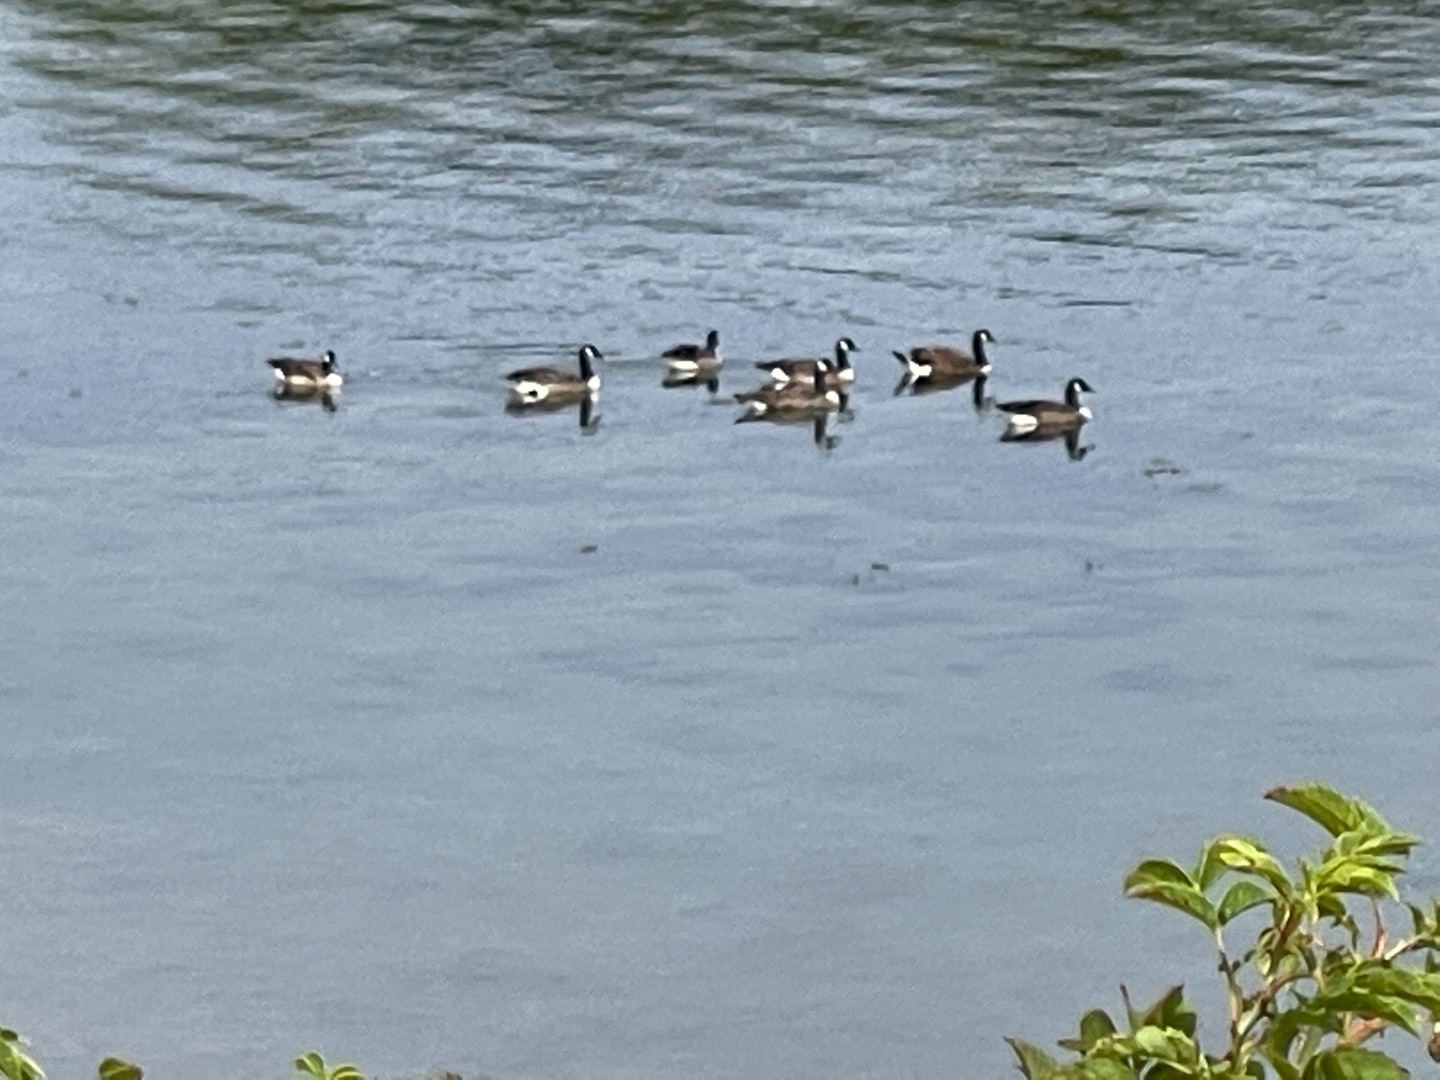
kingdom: Animalia
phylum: Chordata
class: Aves
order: Anseriformes
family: Anatidae
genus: Branta
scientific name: Branta canadensis
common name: Canadagås
